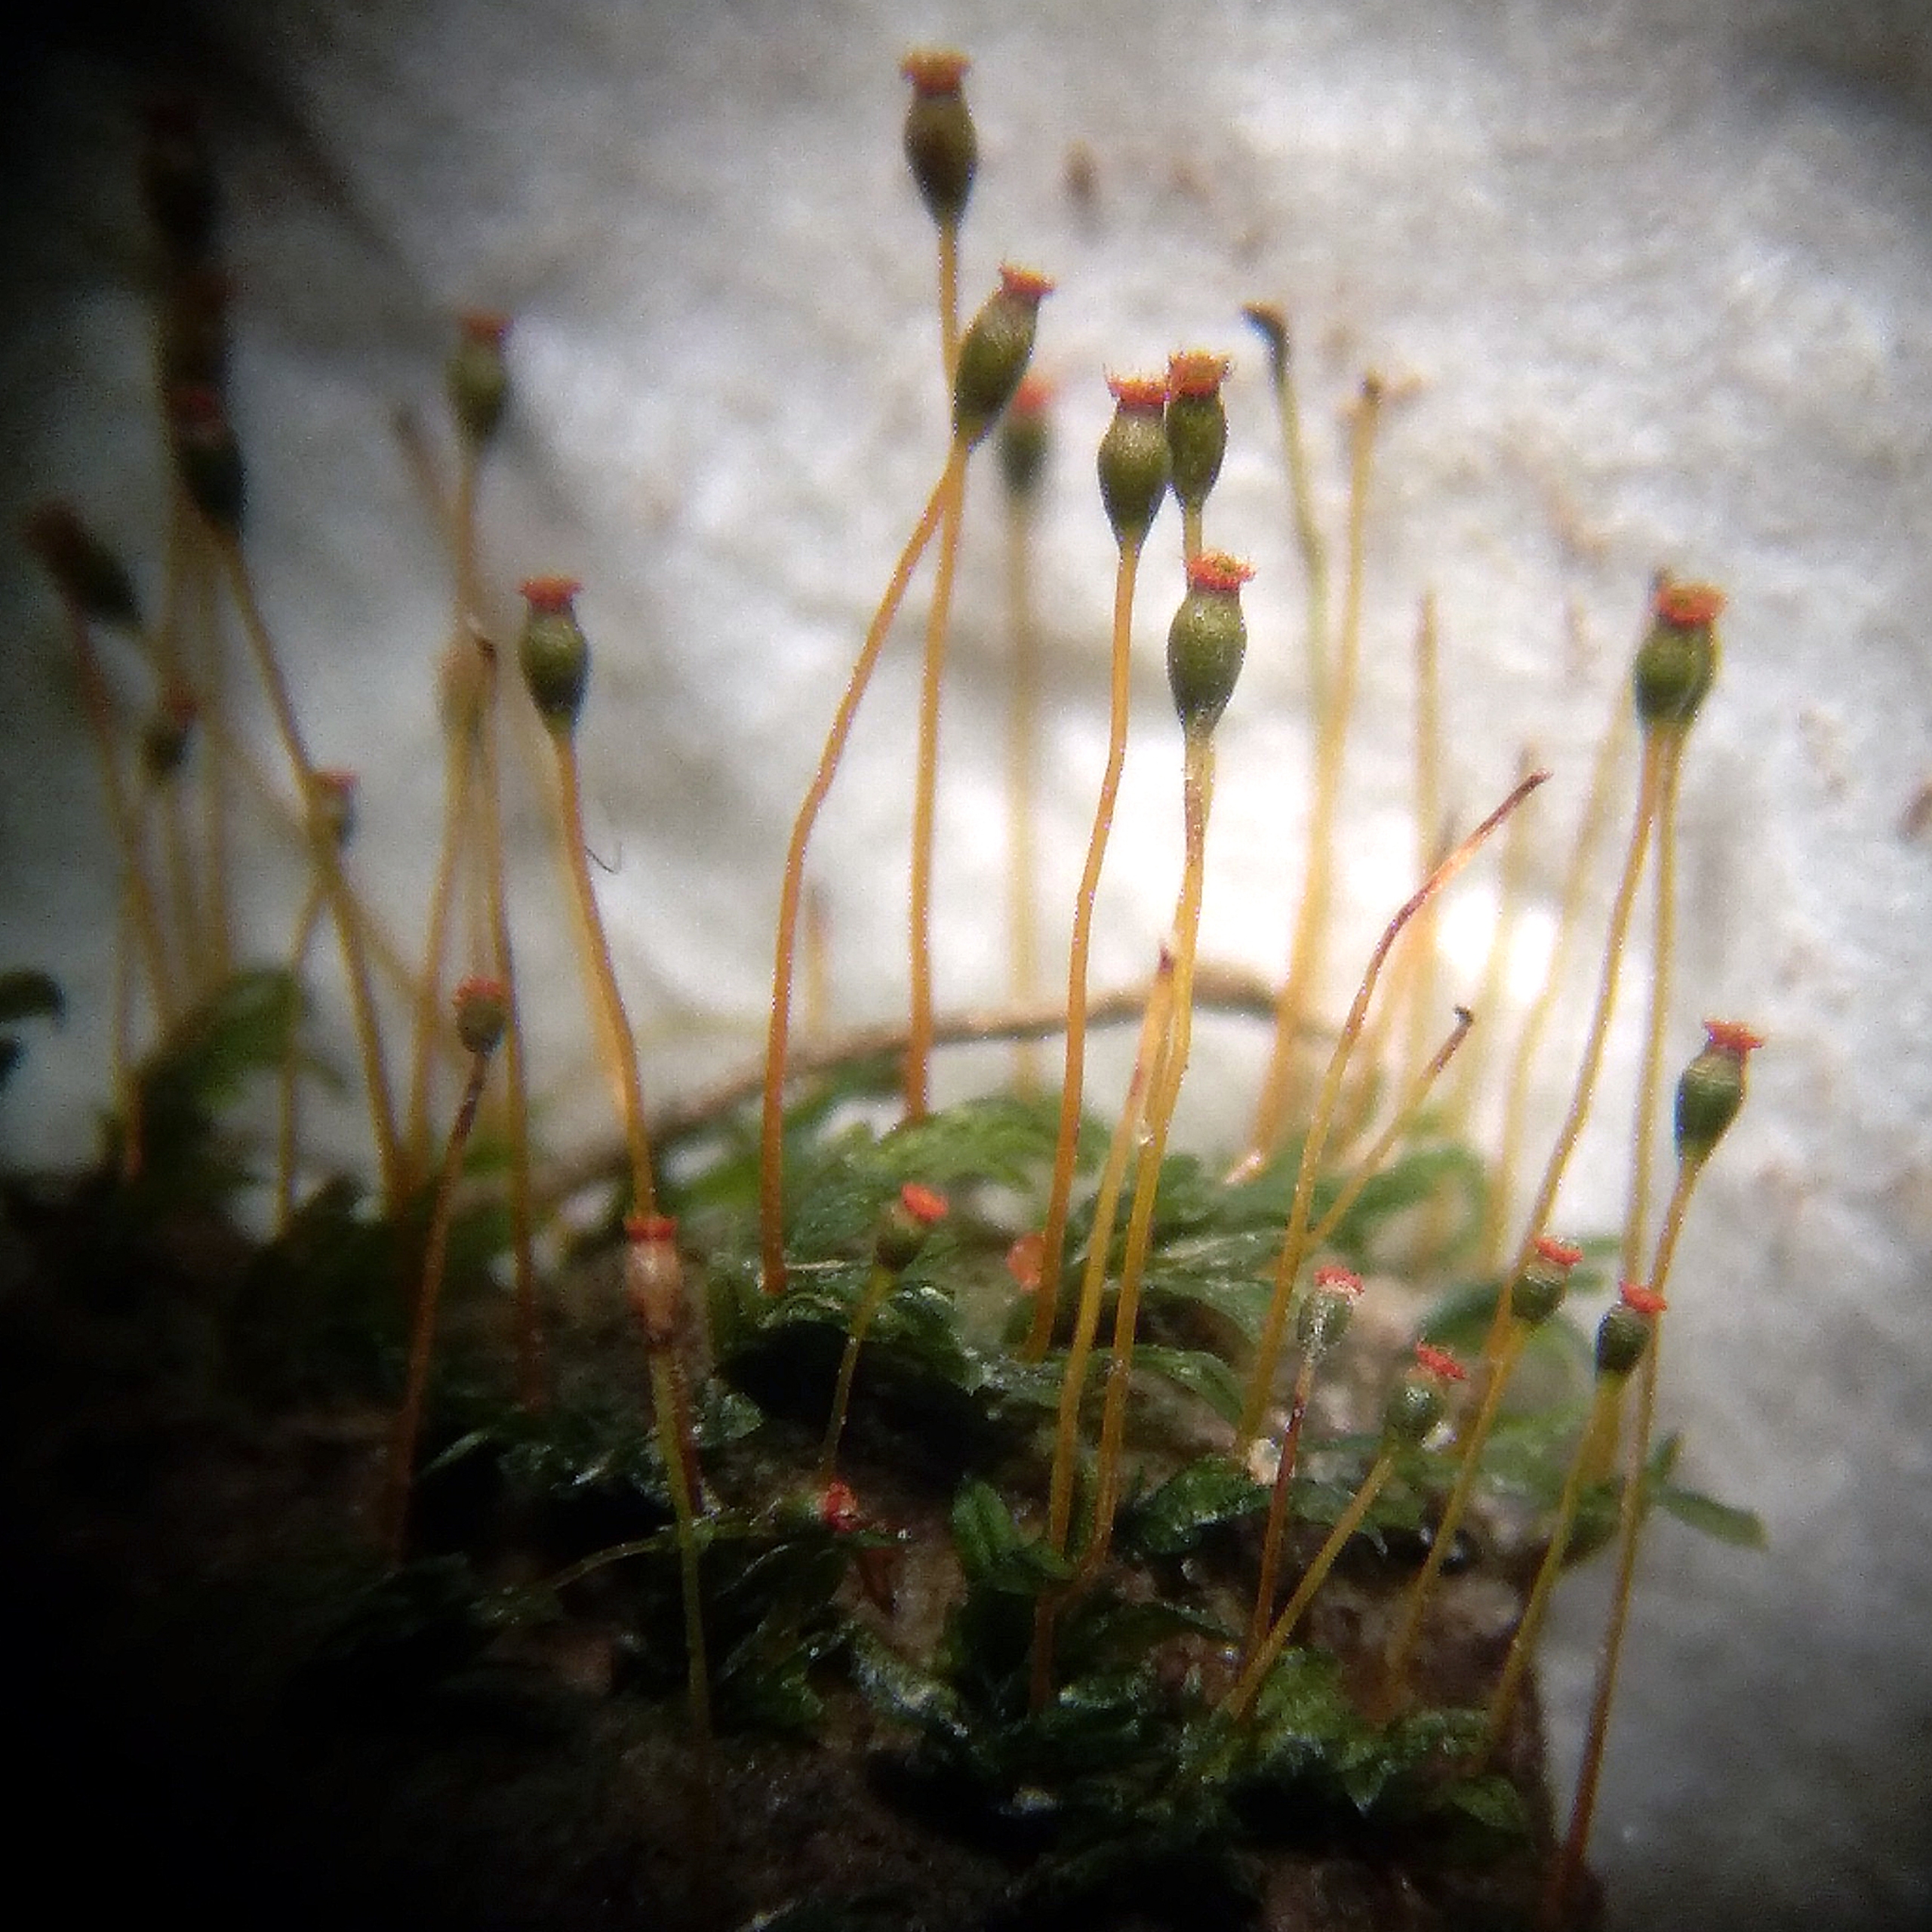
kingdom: Plantae
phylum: Bryophyta
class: Bryopsida
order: Dicranales
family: Fissidentaceae
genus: Fissidens
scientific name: Fissidens exilis
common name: Ler-rademos
